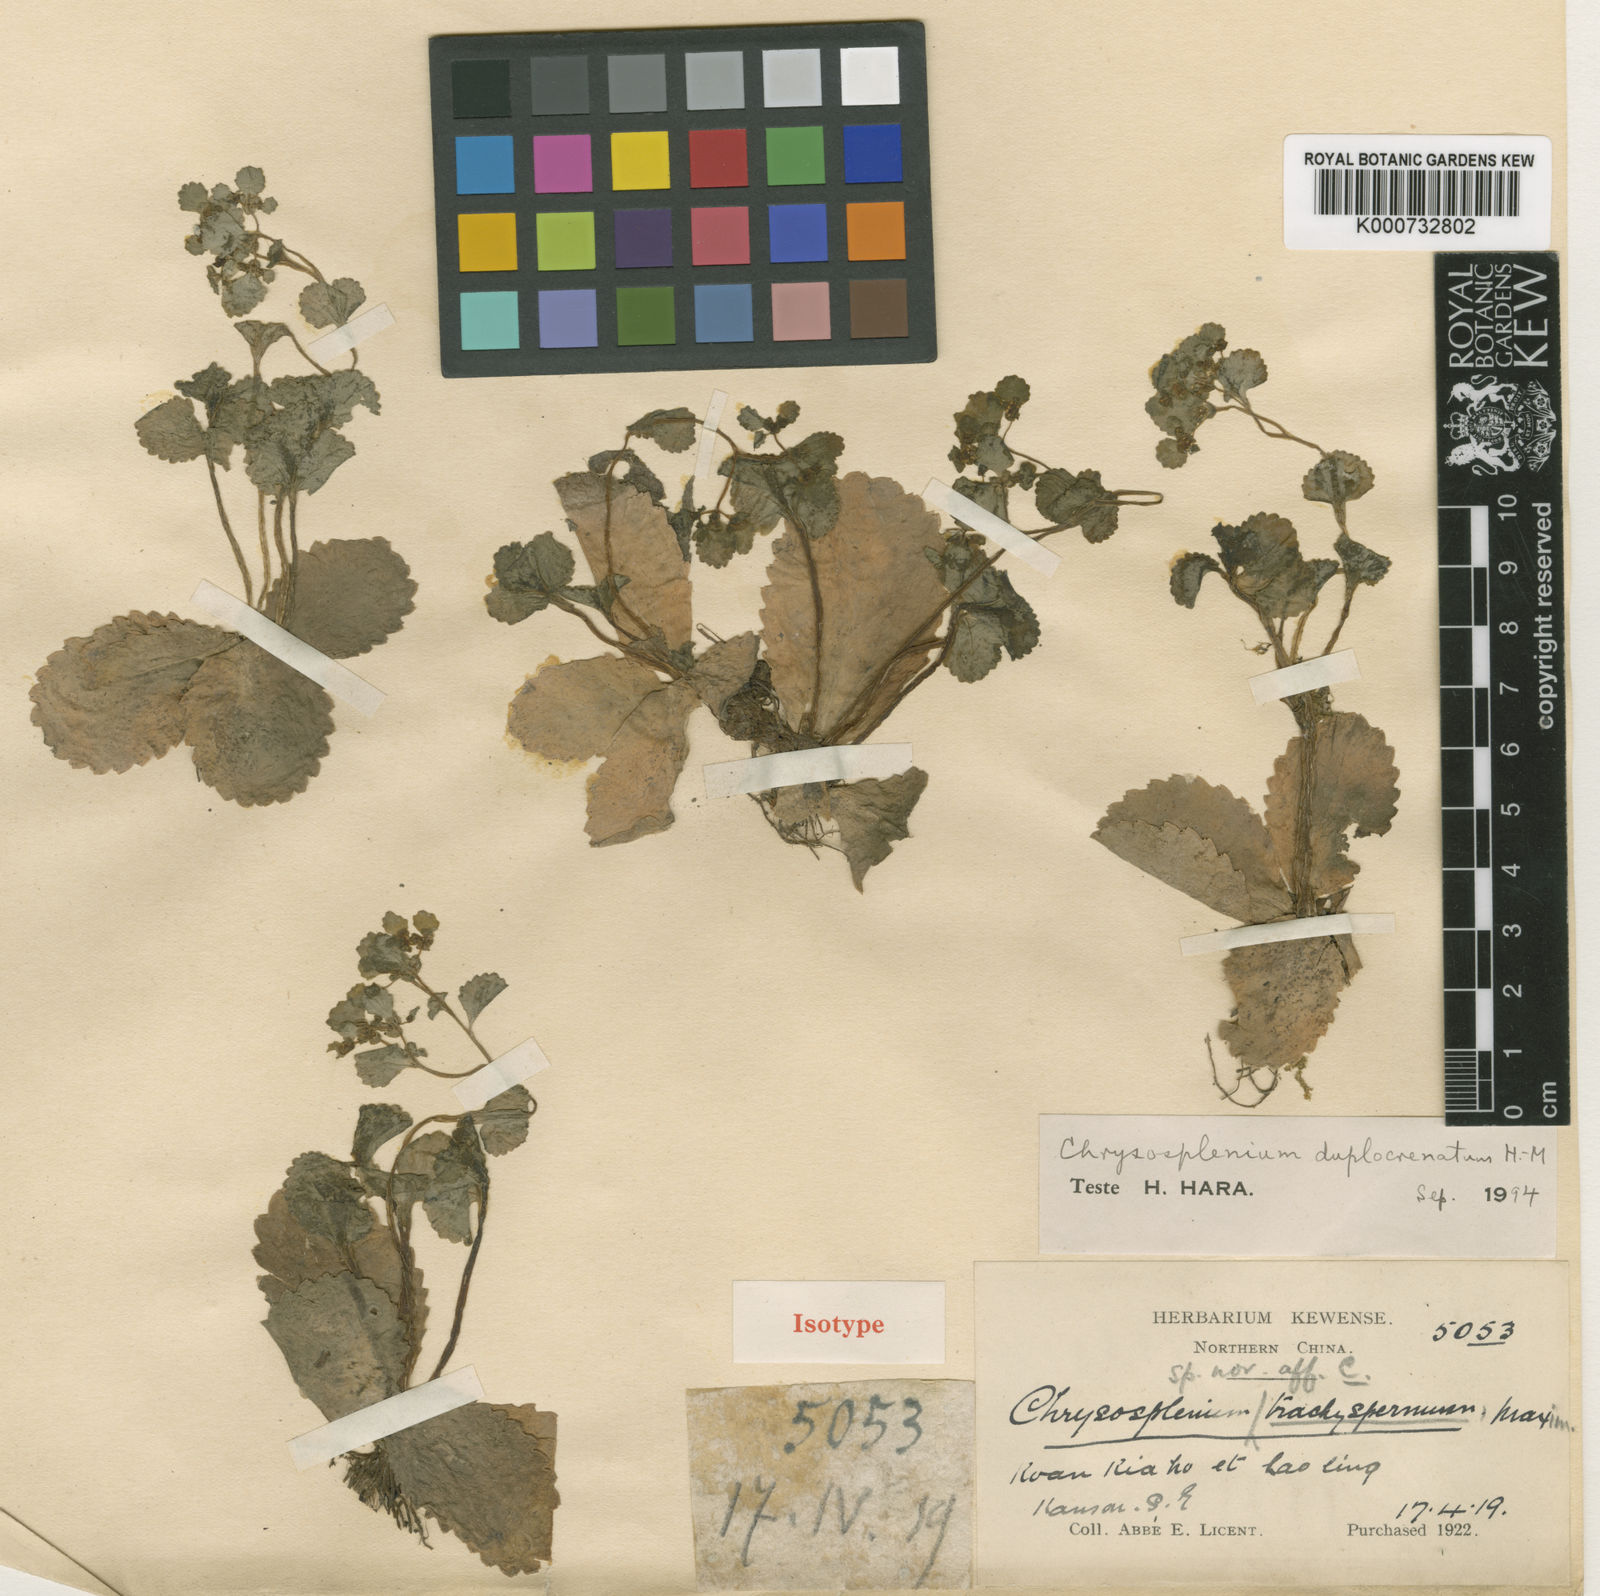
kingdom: Plantae
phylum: Tracheophyta
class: Magnoliopsida
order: Saxifragales
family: Saxifragaceae
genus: Chrysosplenium
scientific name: Chrysosplenium biondianum
